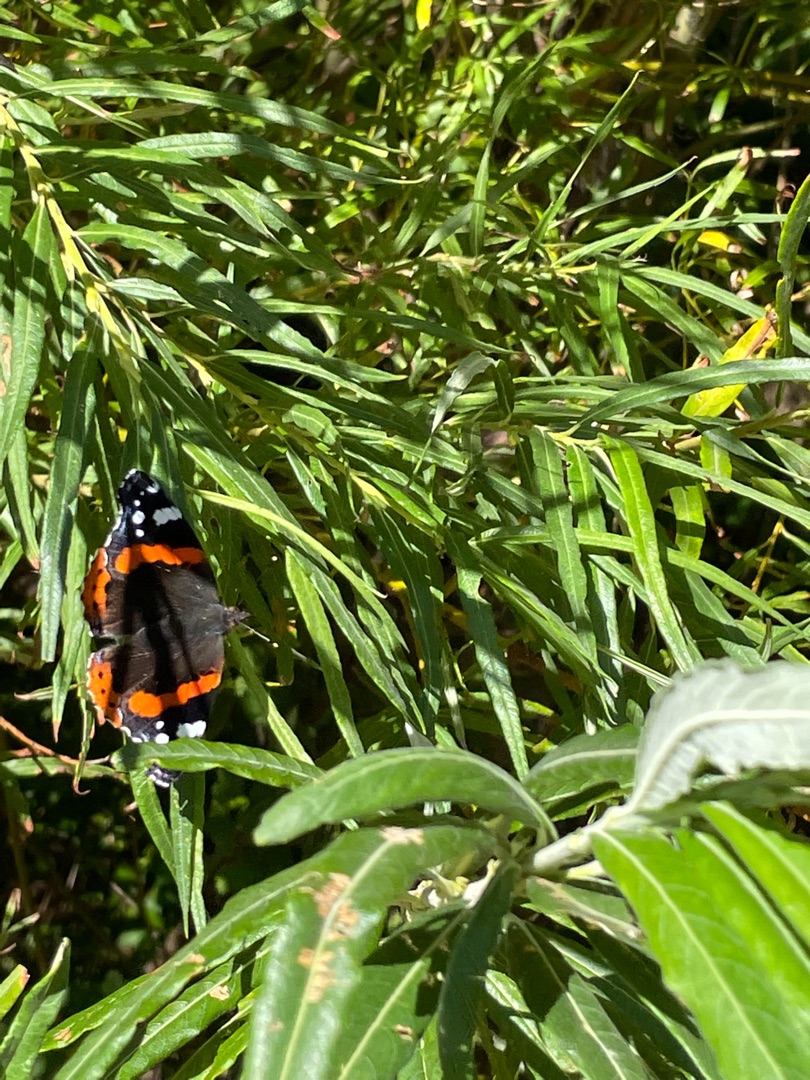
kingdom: Animalia
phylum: Arthropoda
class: Insecta
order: Lepidoptera
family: Nymphalidae
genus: Vanessa
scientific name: Vanessa atalanta
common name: Admiral
